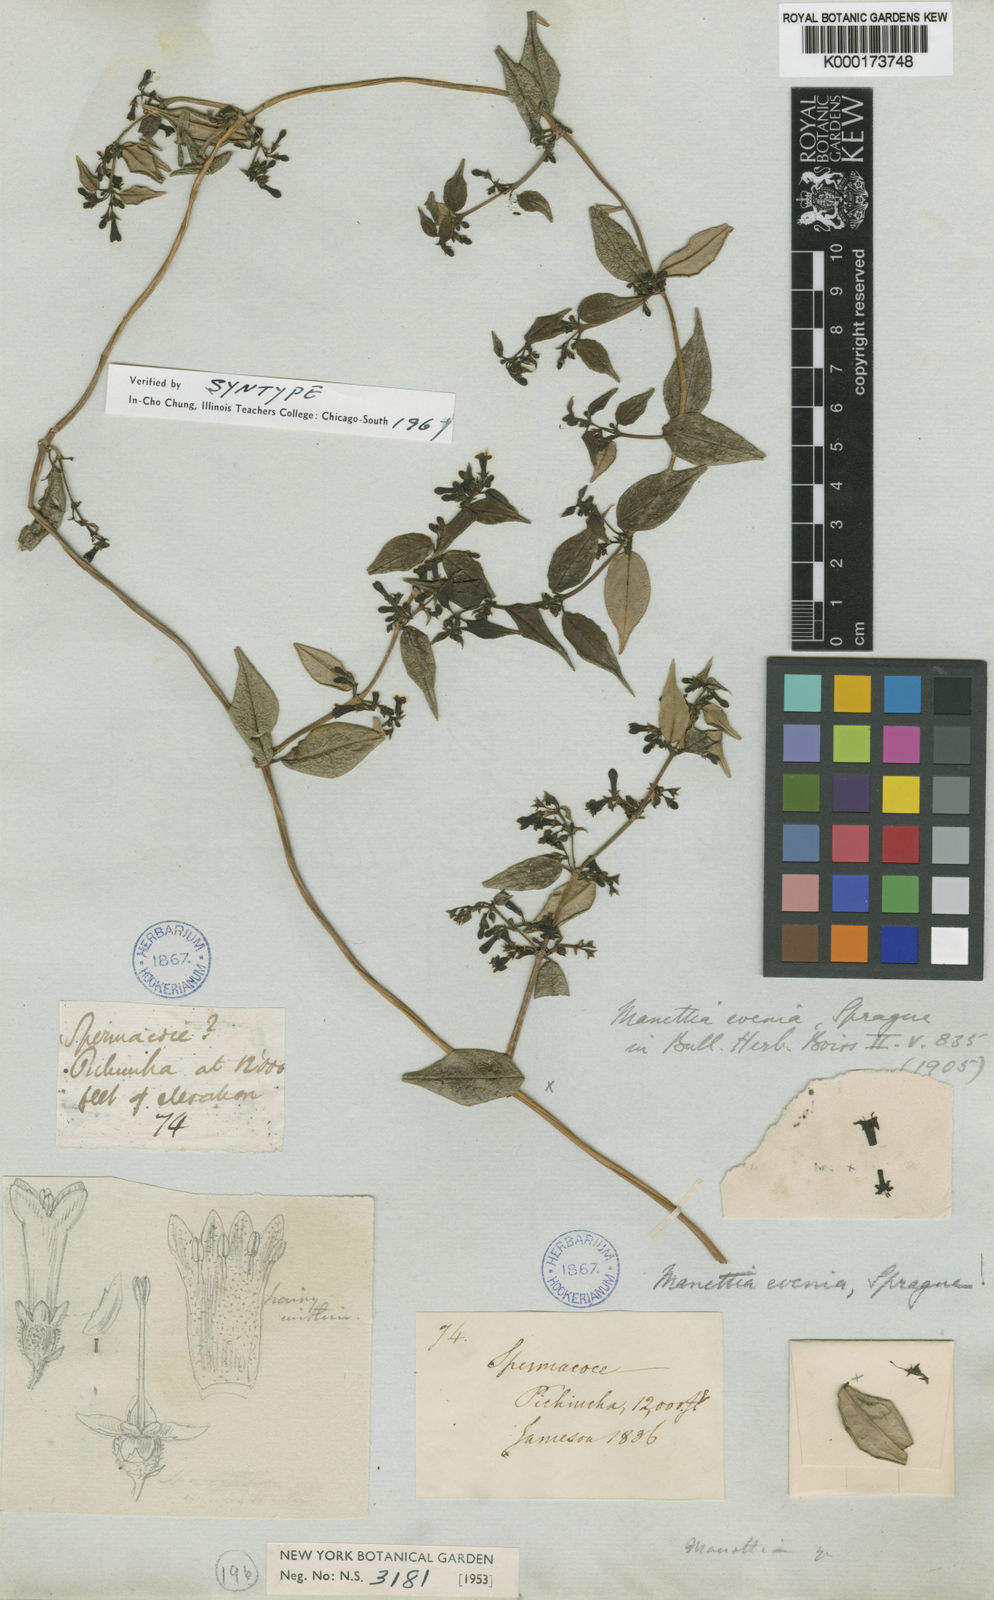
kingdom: Plantae
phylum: Tracheophyta
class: Magnoliopsida
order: Gentianales
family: Rubiaceae
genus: Manettia
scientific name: Manettia evenia
